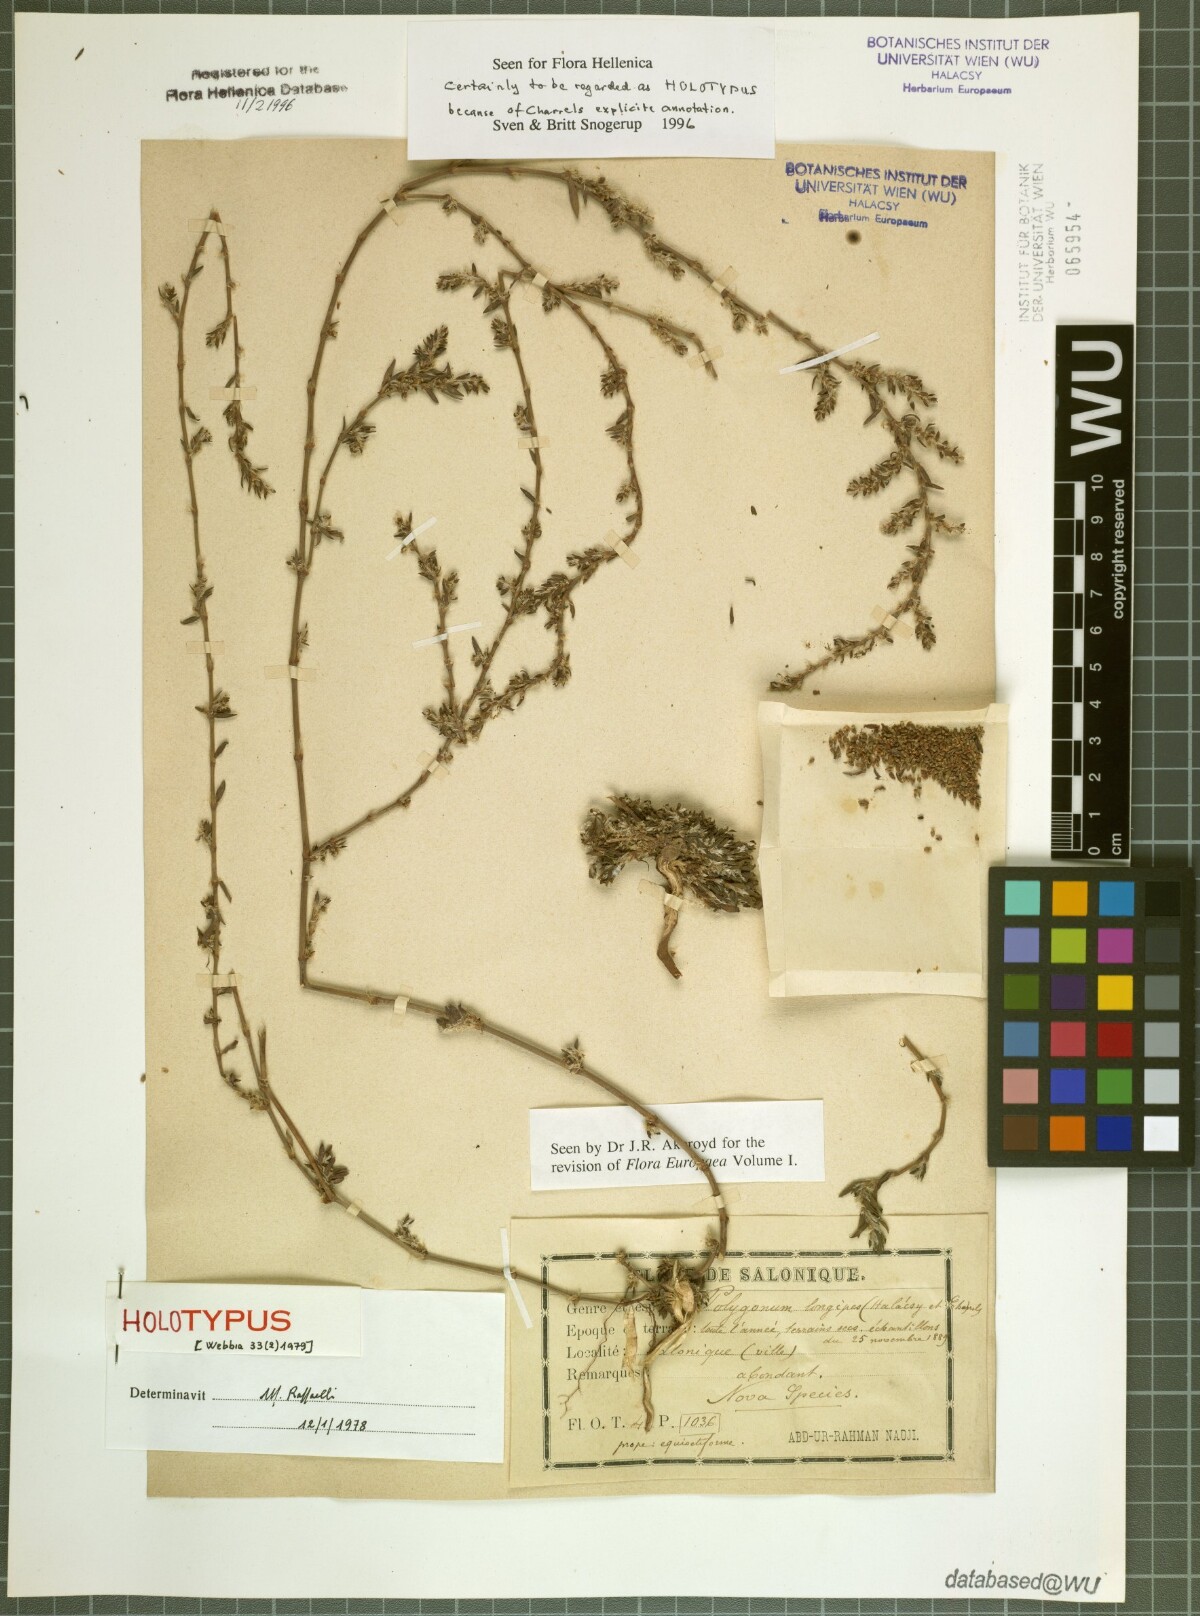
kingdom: Plantae
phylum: Tracheophyta
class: Magnoliopsida
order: Caryophyllales
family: Polygonaceae
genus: Polygonum
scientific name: Polygonum longipes
